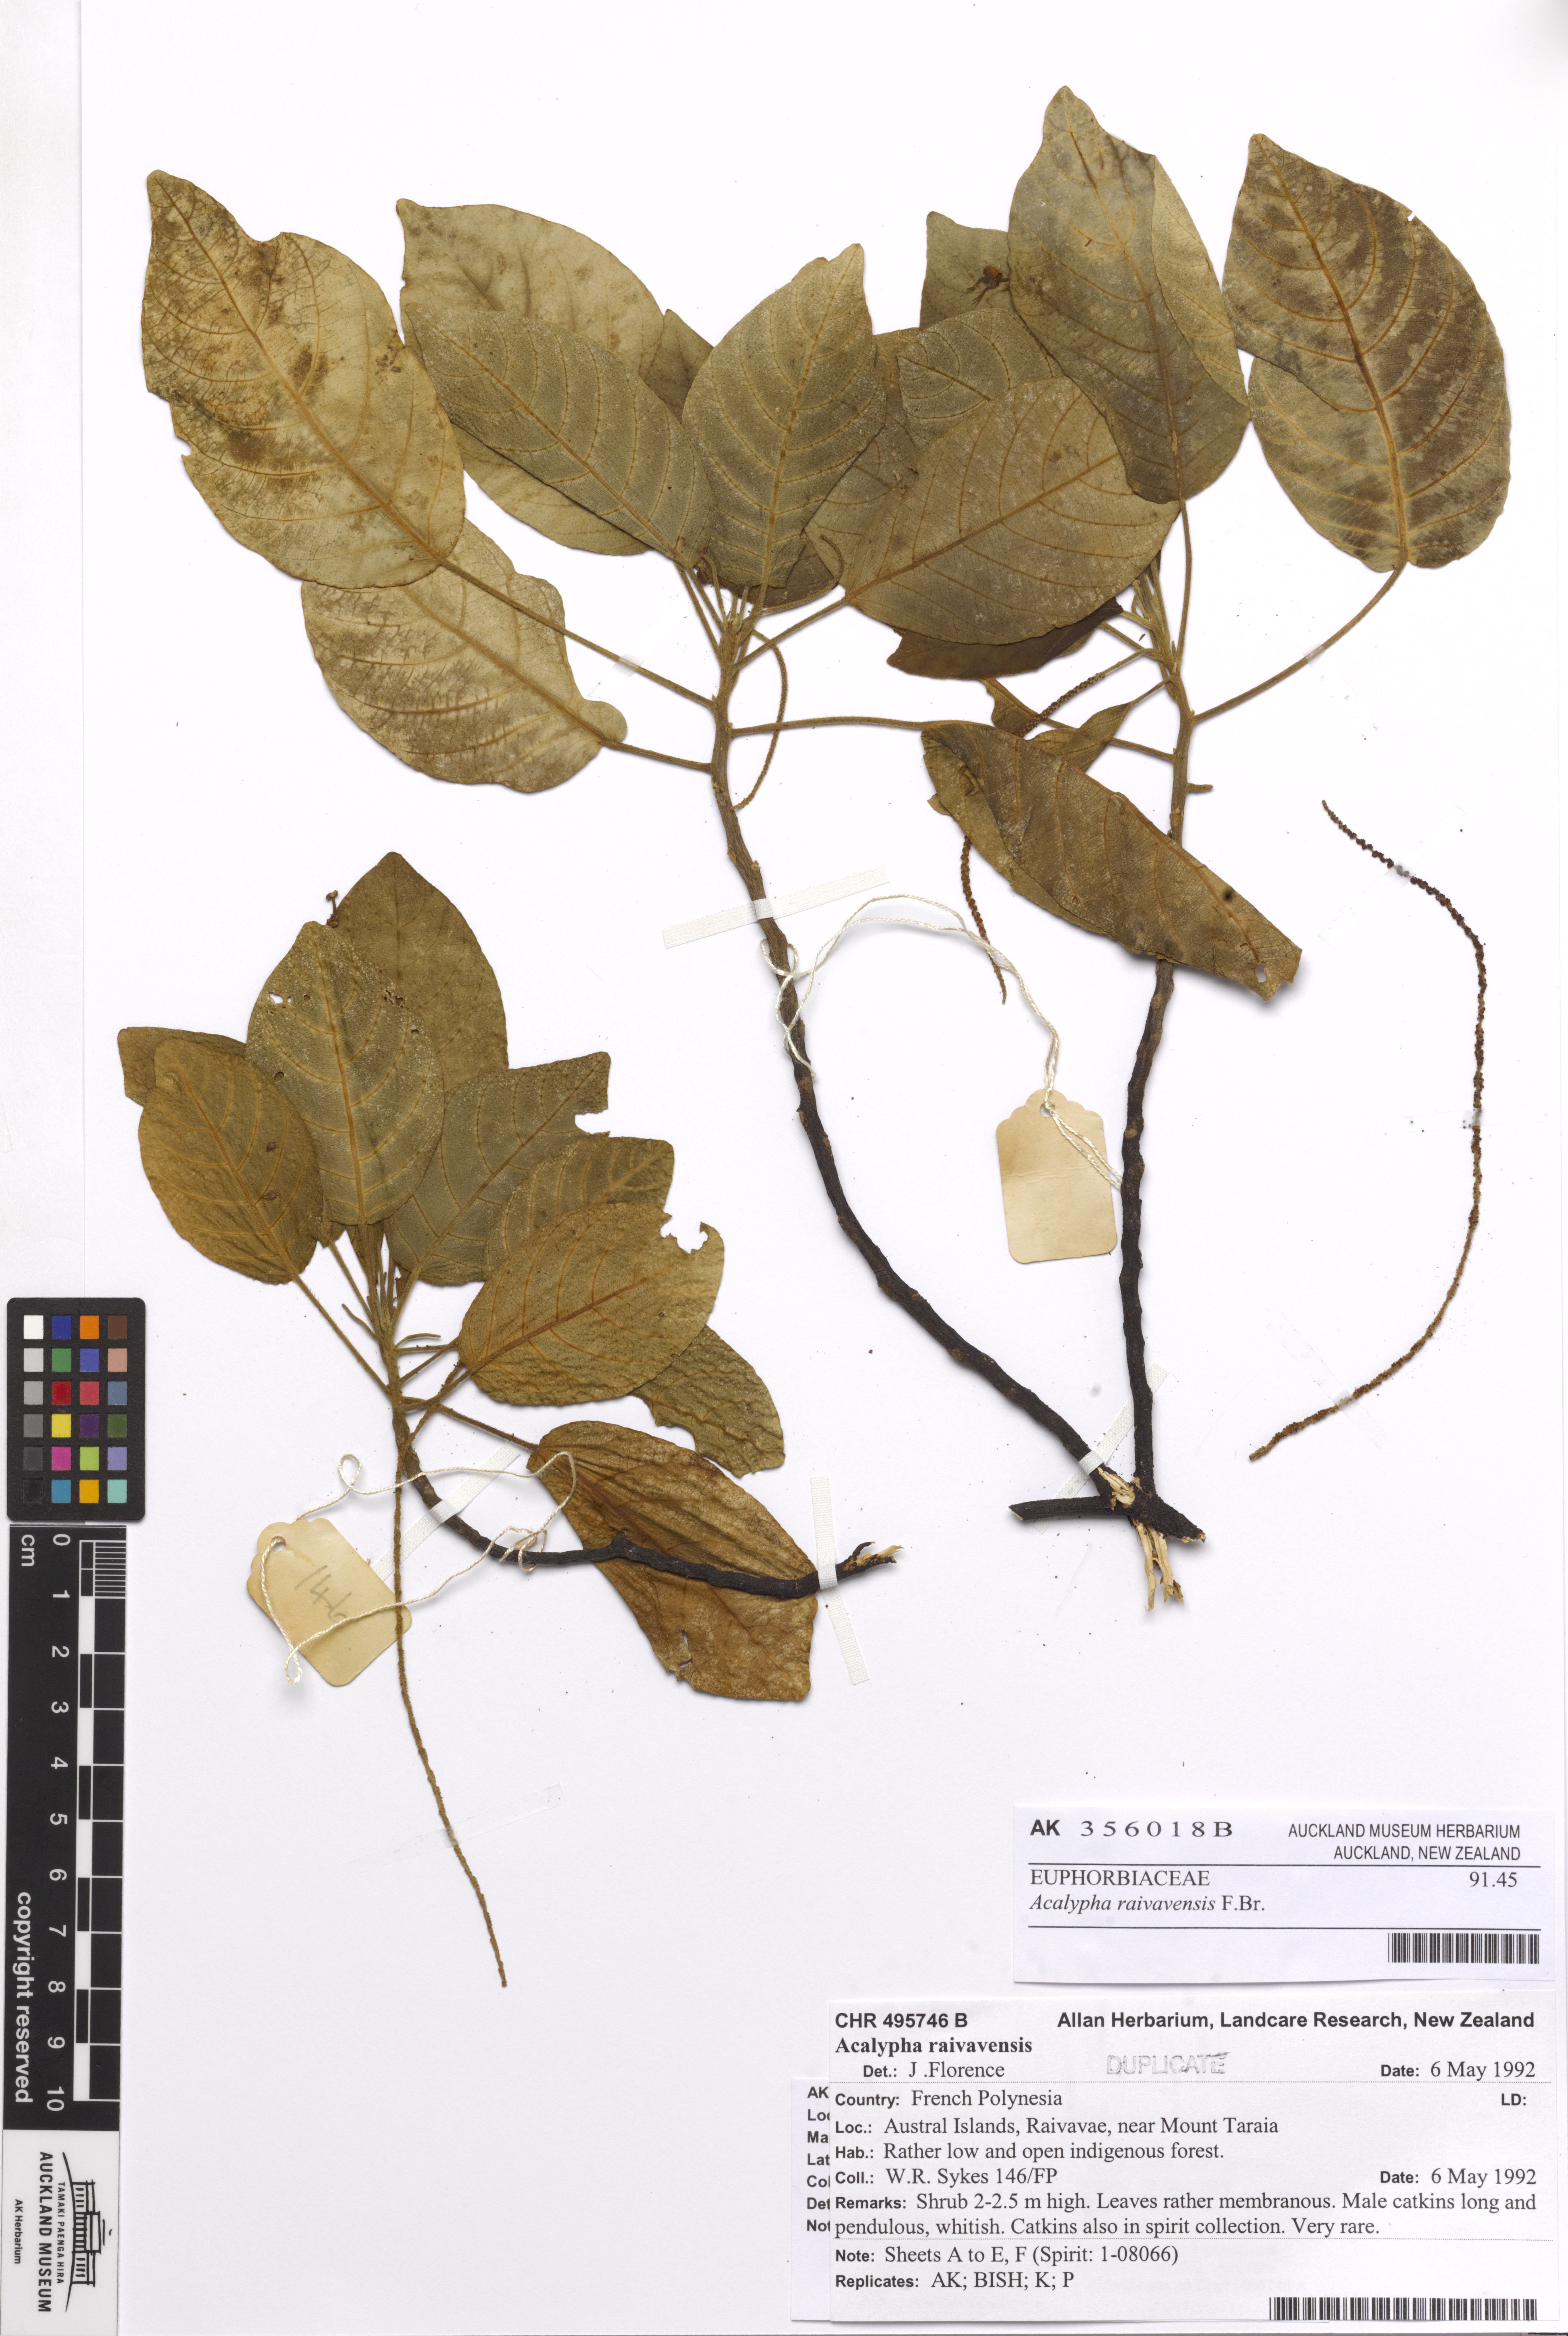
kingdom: Plantae
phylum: Tracheophyta
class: Magnoliopsida
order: Malpighiales
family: Euphorbiaceae
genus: Acalypha
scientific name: Acalypha raivavensis
